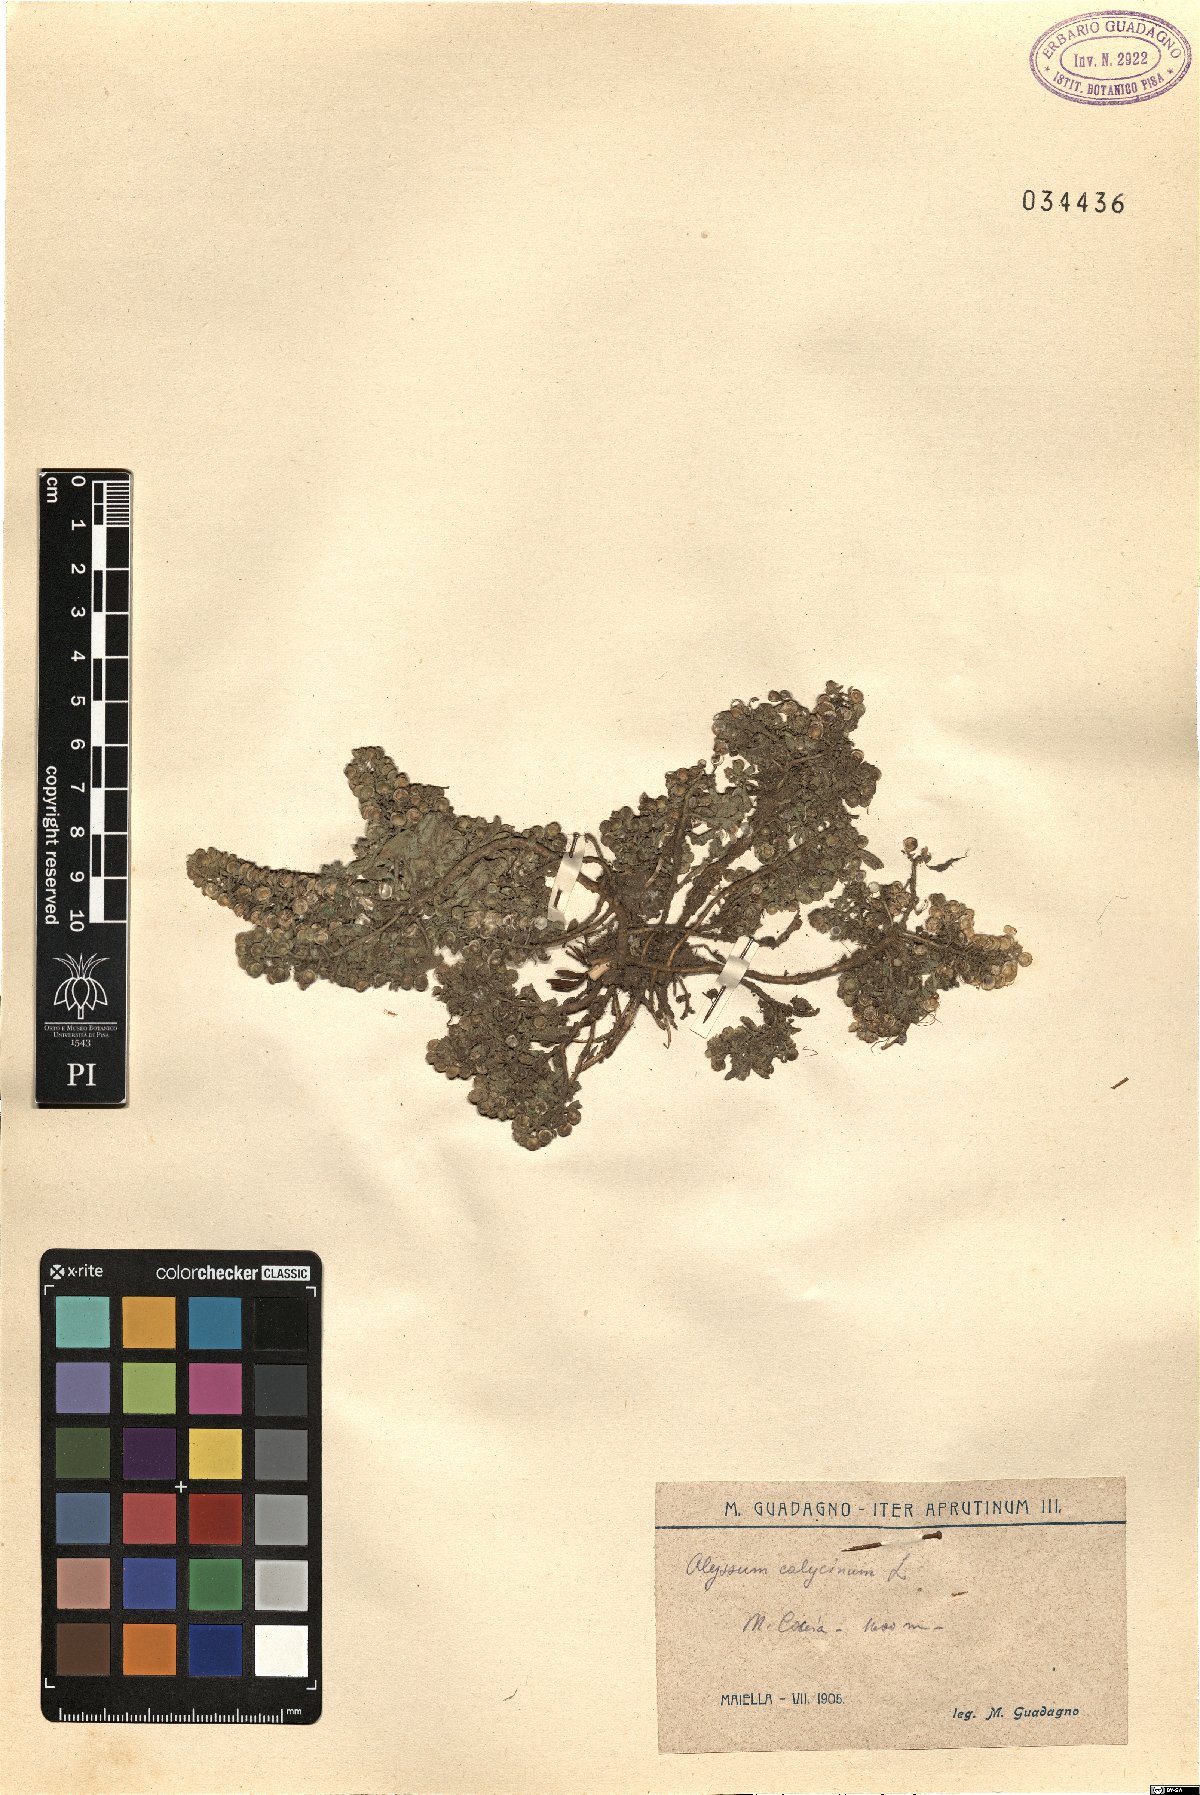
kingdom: Plantae
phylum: Tracheophyta
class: Magnoliopsida
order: Brassicales
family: Brassicaceae
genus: Alyssum
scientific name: Alyssum alyssoides
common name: Small alison
